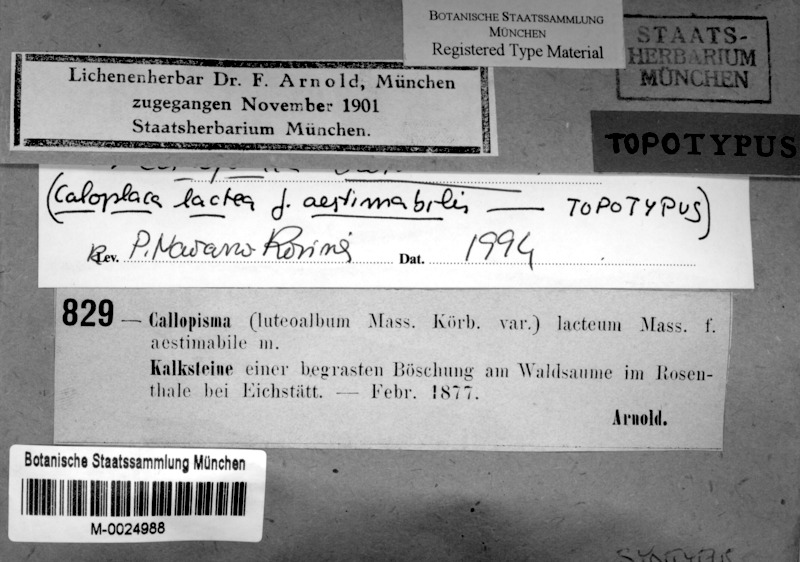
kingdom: Fungi
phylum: Ascomycota
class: Lecanoromycetes
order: Teloschistales
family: Teloschistaceae
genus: Xanthocarpia
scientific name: Xanthocarpia crenulatella
